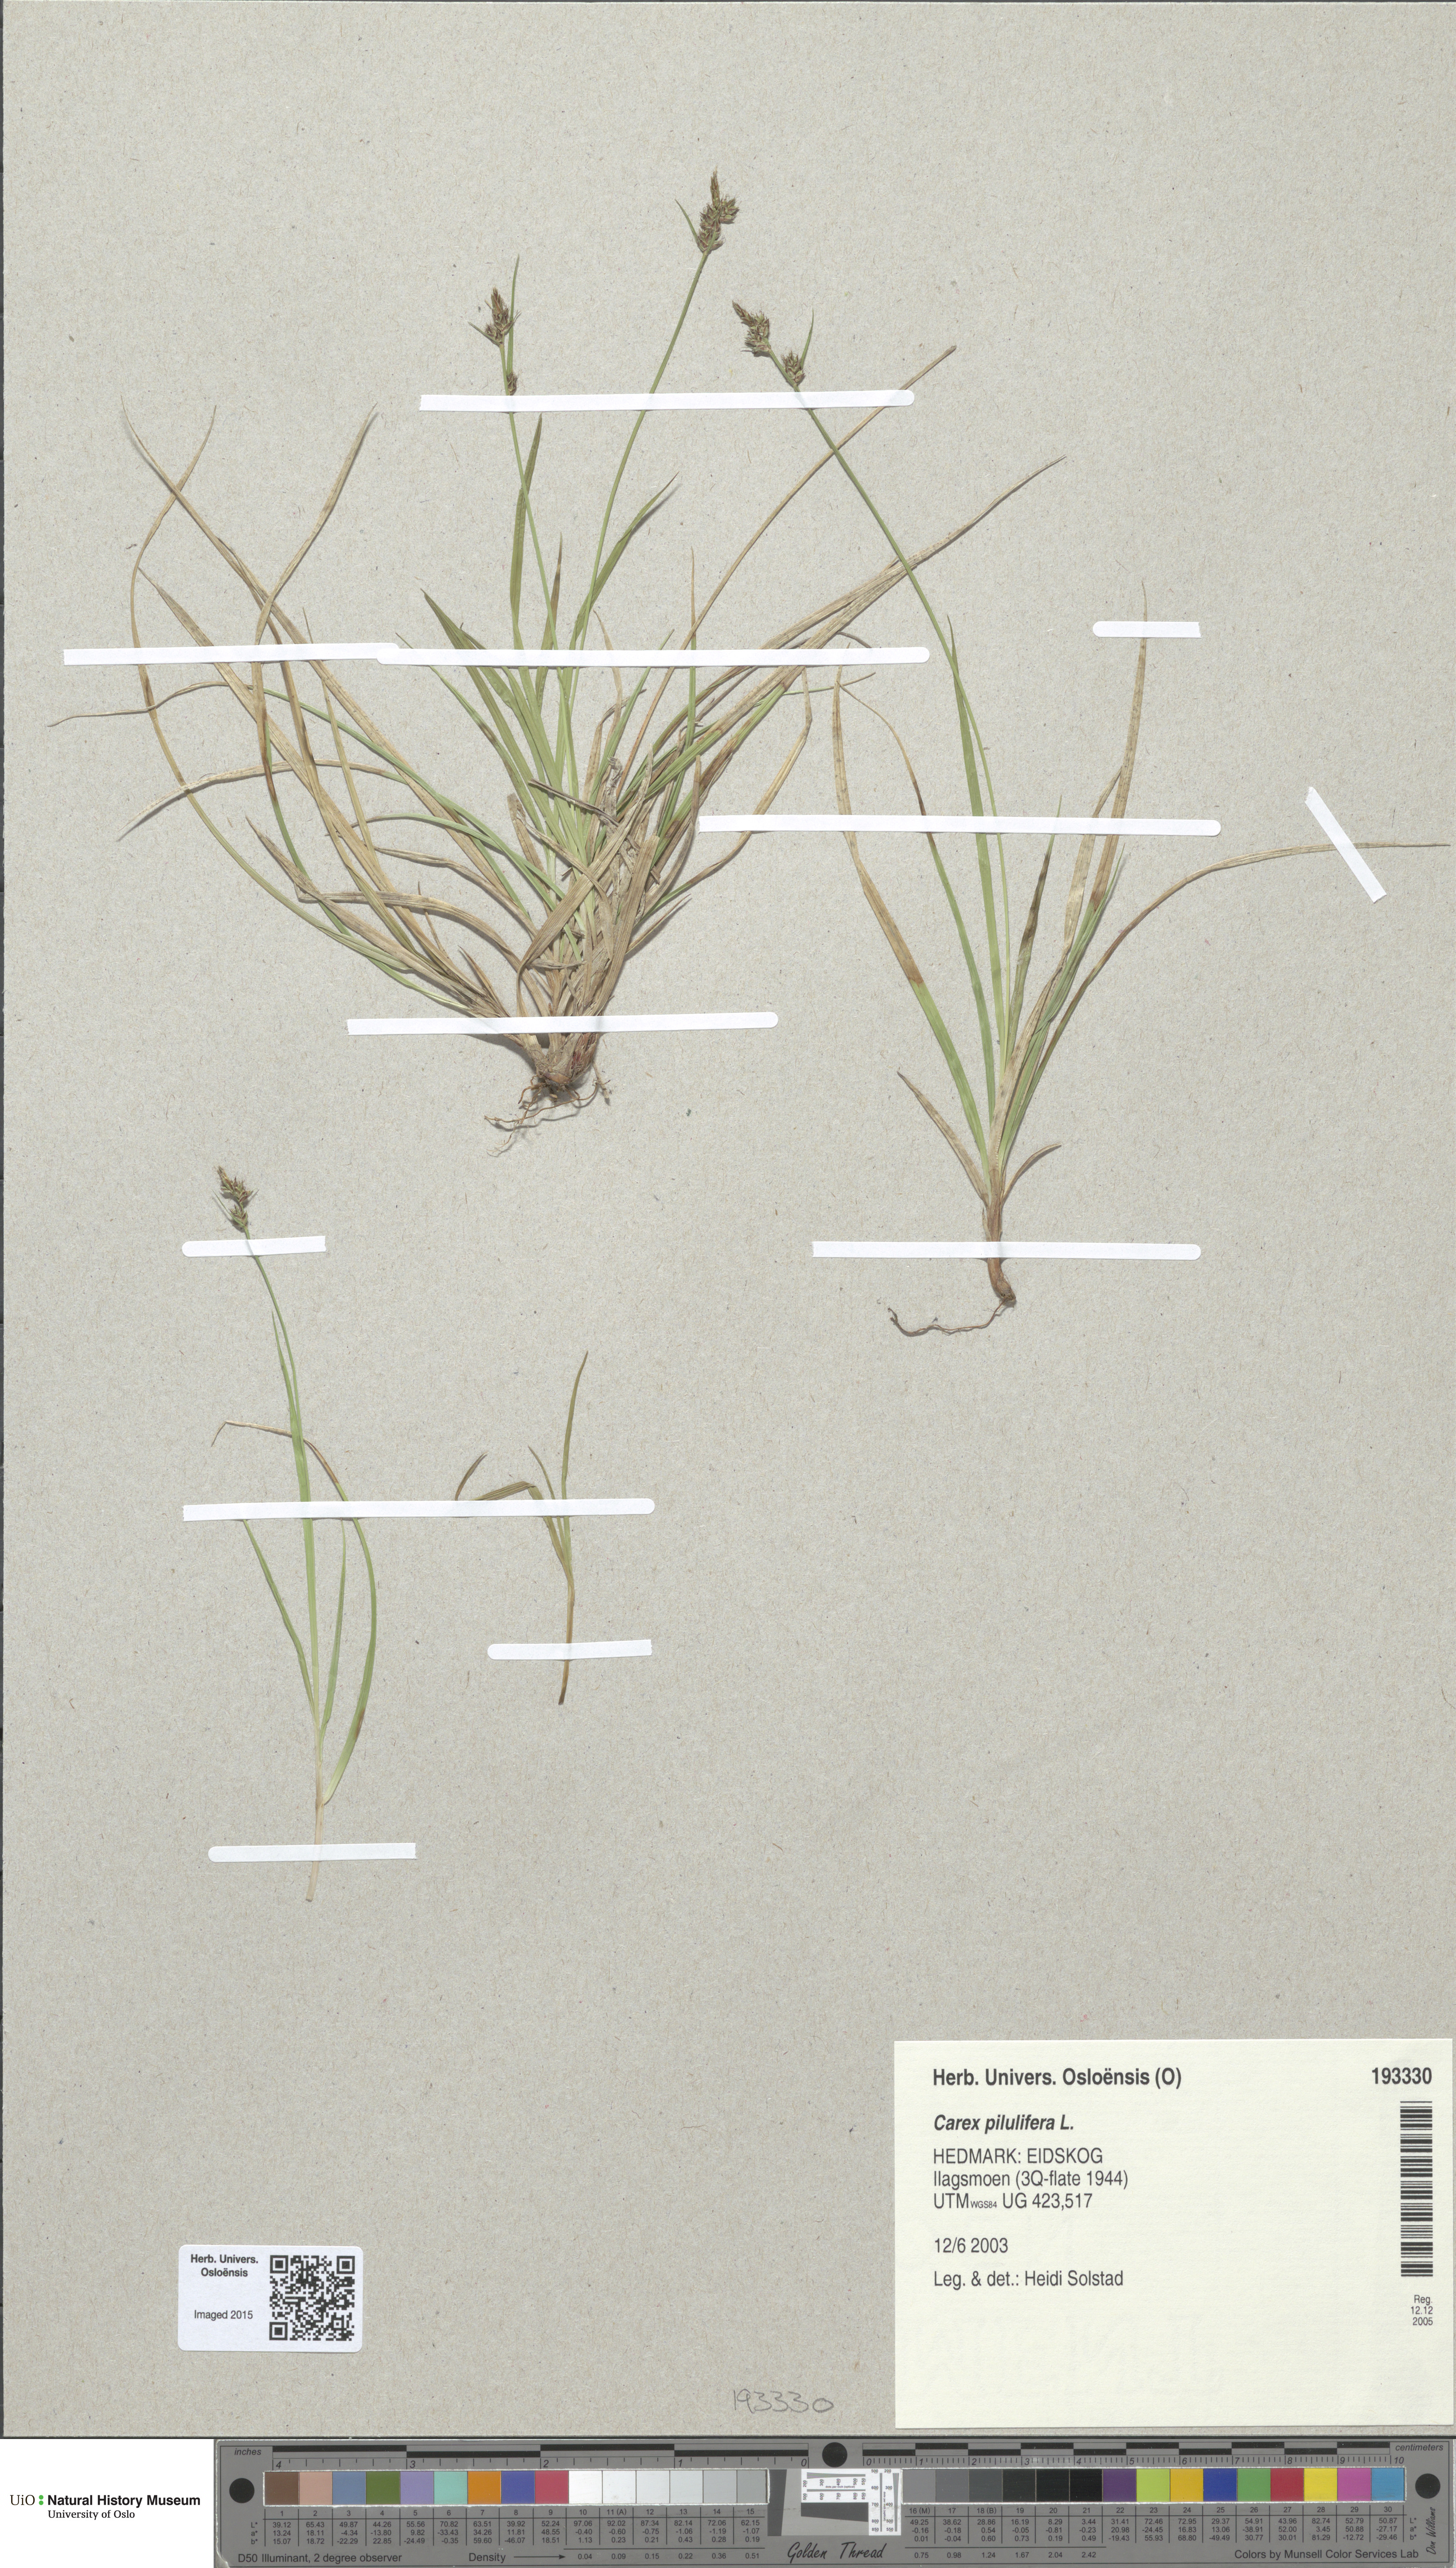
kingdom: Plantae
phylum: Tracheophyta
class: Liliopsida
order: Poales
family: Cyperaceae
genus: Carex
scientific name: Carex pilulifera
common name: Pill sedge
